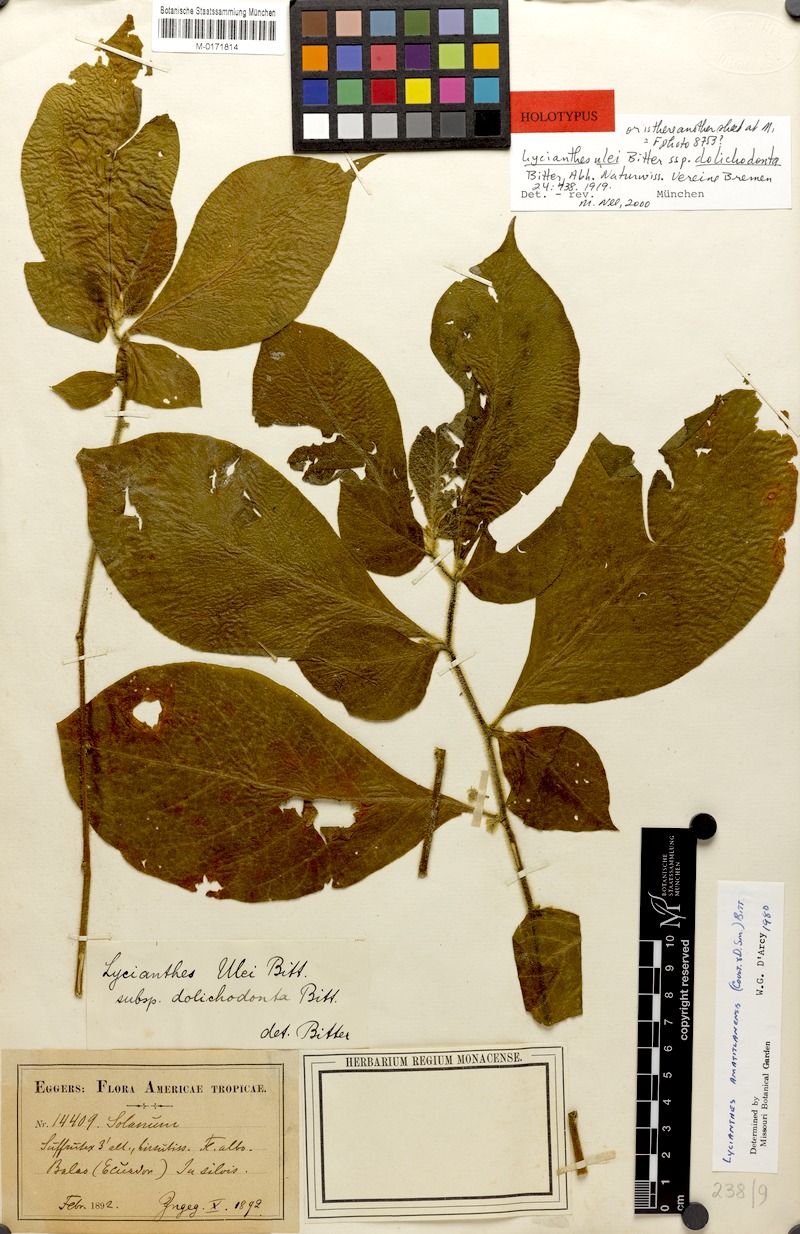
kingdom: Plantae
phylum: Tracheophyta
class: Magnoliopsida
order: Solanales
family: Solanaceae
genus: Lycianthes
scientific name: Lycianthes inaequilatera
